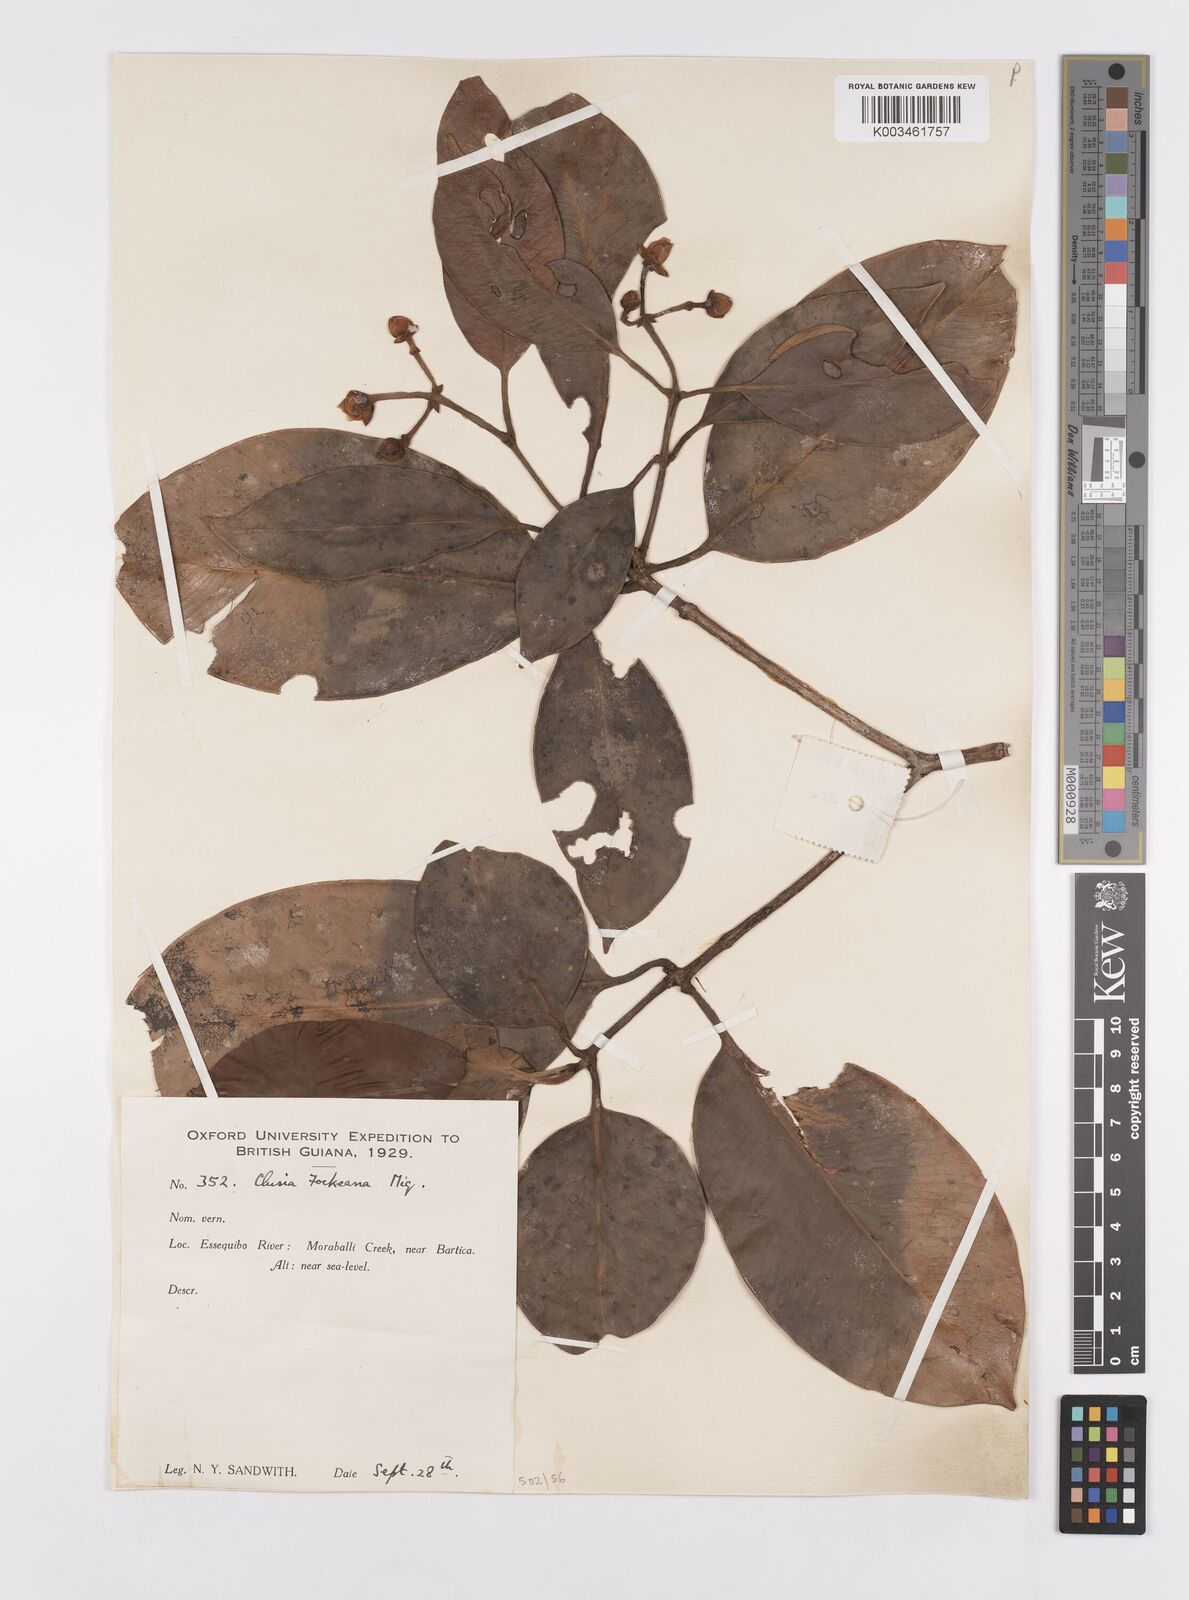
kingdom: Plantae
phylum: Tracheophyta
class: Magnoliopsida
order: Malpighiales
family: Clusiaceae
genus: Clusia
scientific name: Clusia fockeana
